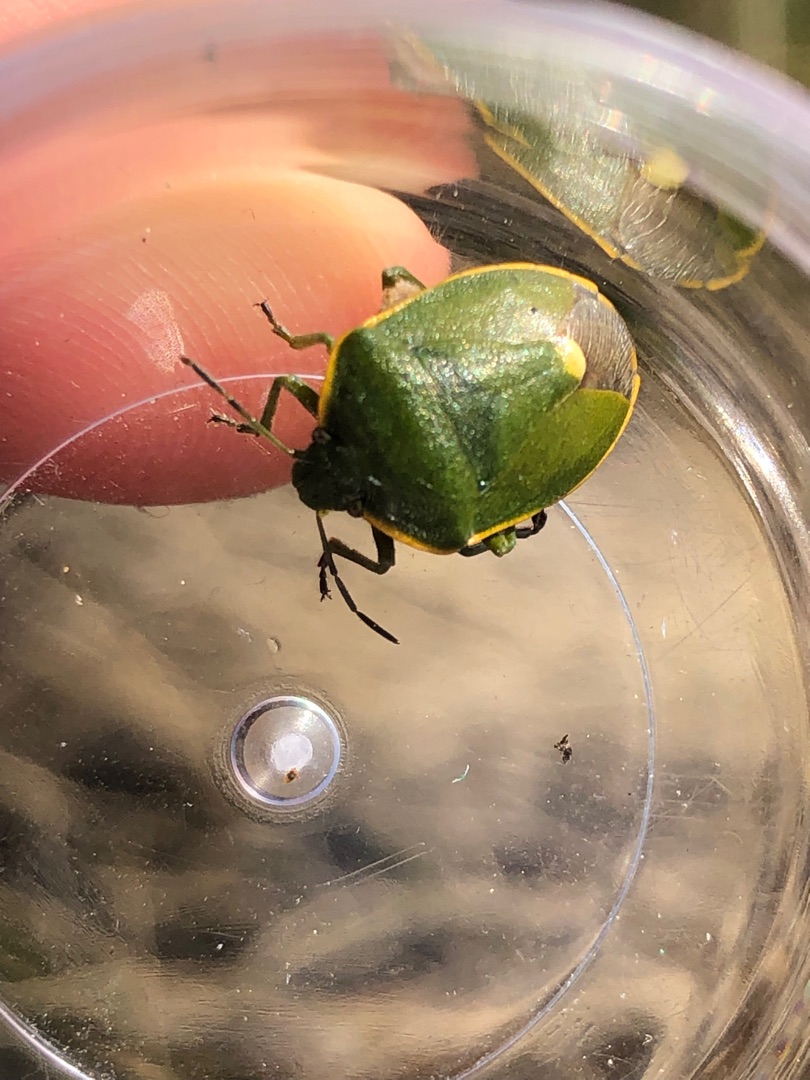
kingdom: Animalia
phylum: Arthropoda
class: Insecta
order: Hemiptera
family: Pentatomidae
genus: Chlorochroa
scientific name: Chlorochroa juniperina
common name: Enebærbredtæge
